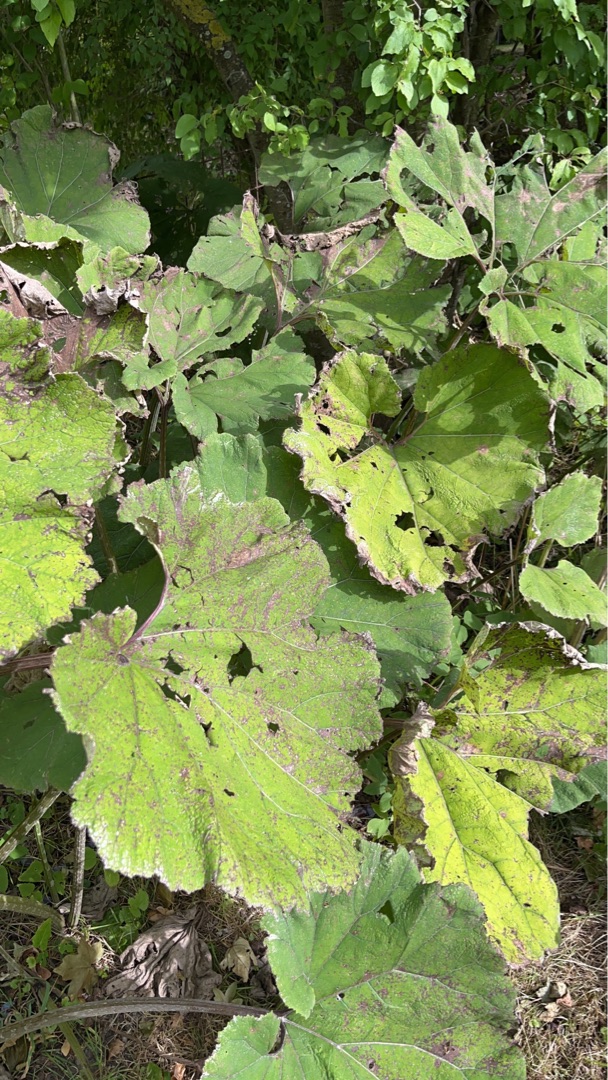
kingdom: Plantae
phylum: Tracheophyta
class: Magnoliopsida
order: Asterales
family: Asteraceae
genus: Petasites
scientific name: Petasites hybridus
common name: Rød hestehov
